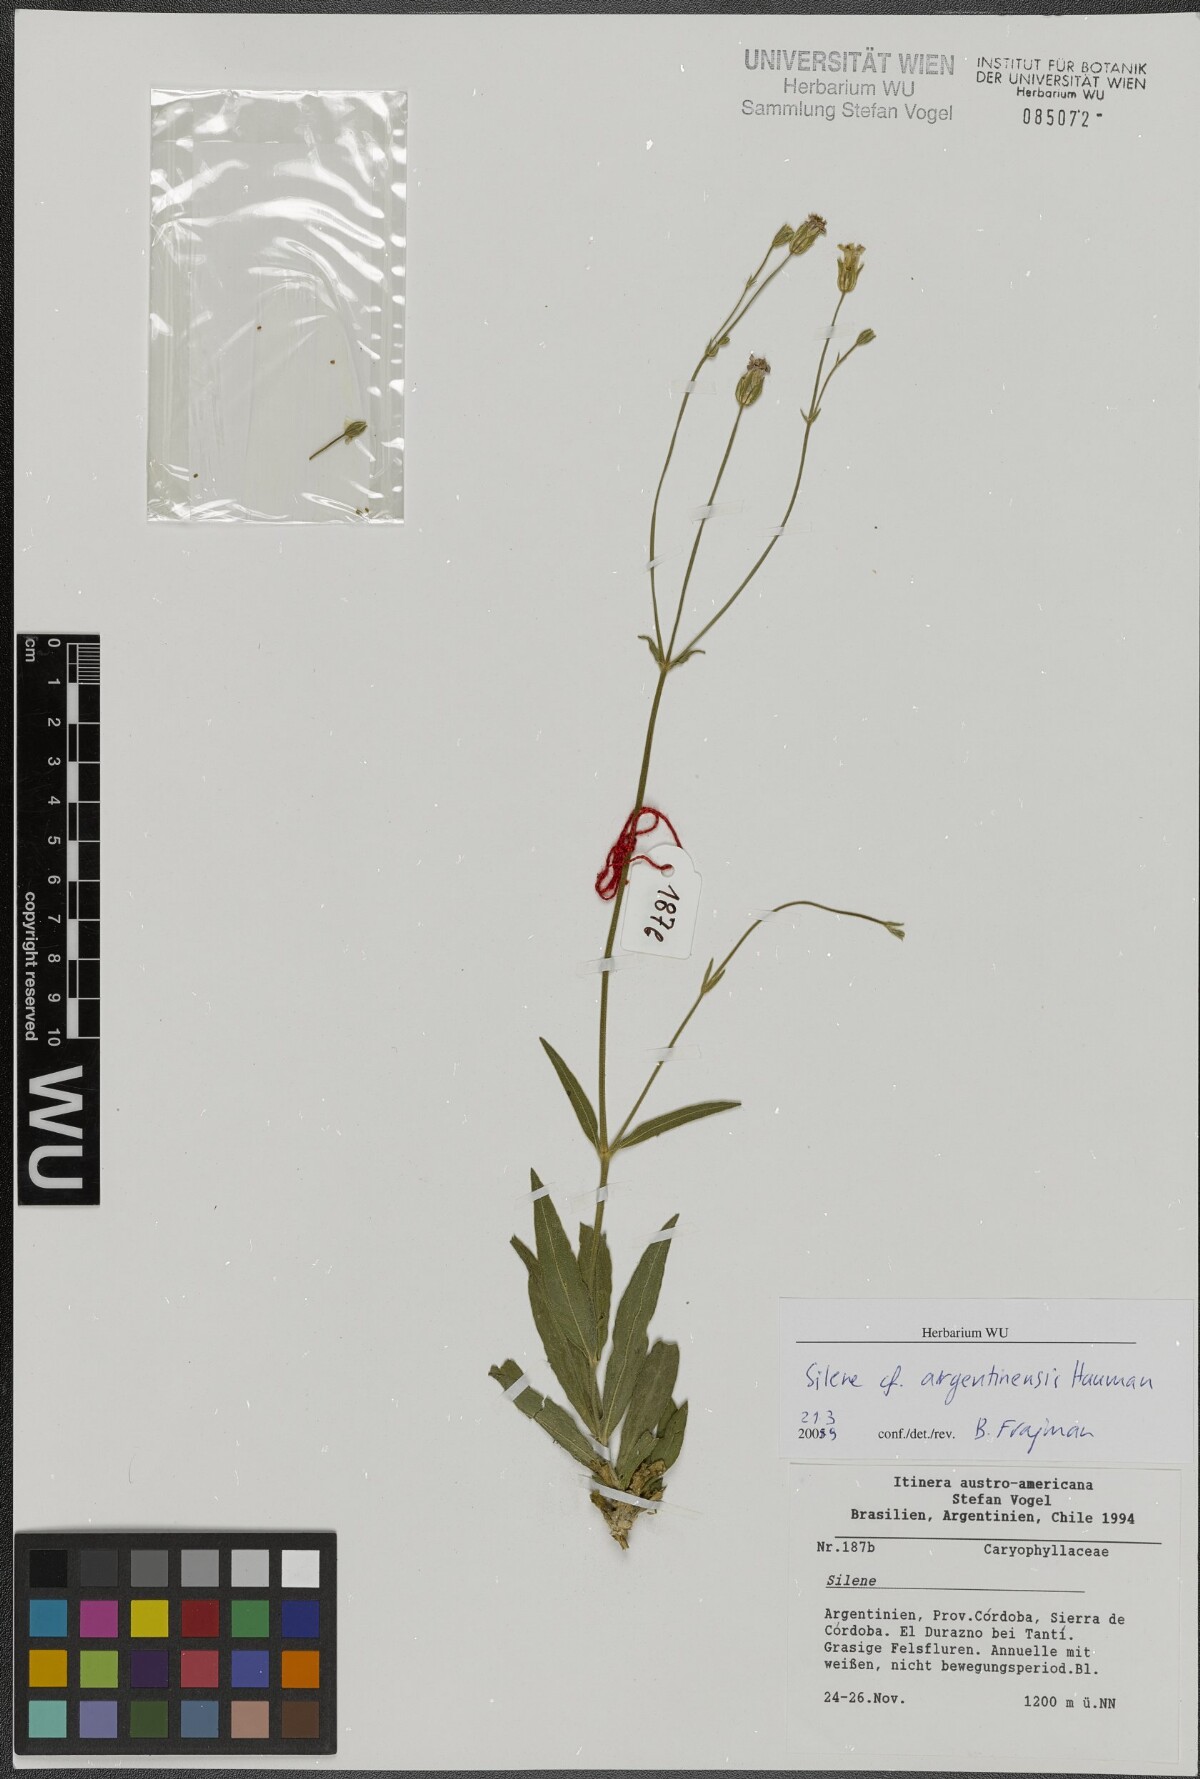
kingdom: Plantae
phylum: Tracheophyta
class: Magnoliopsida
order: Caryophyllales
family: Caryophyllaceae
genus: Silene
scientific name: Silene argentina
